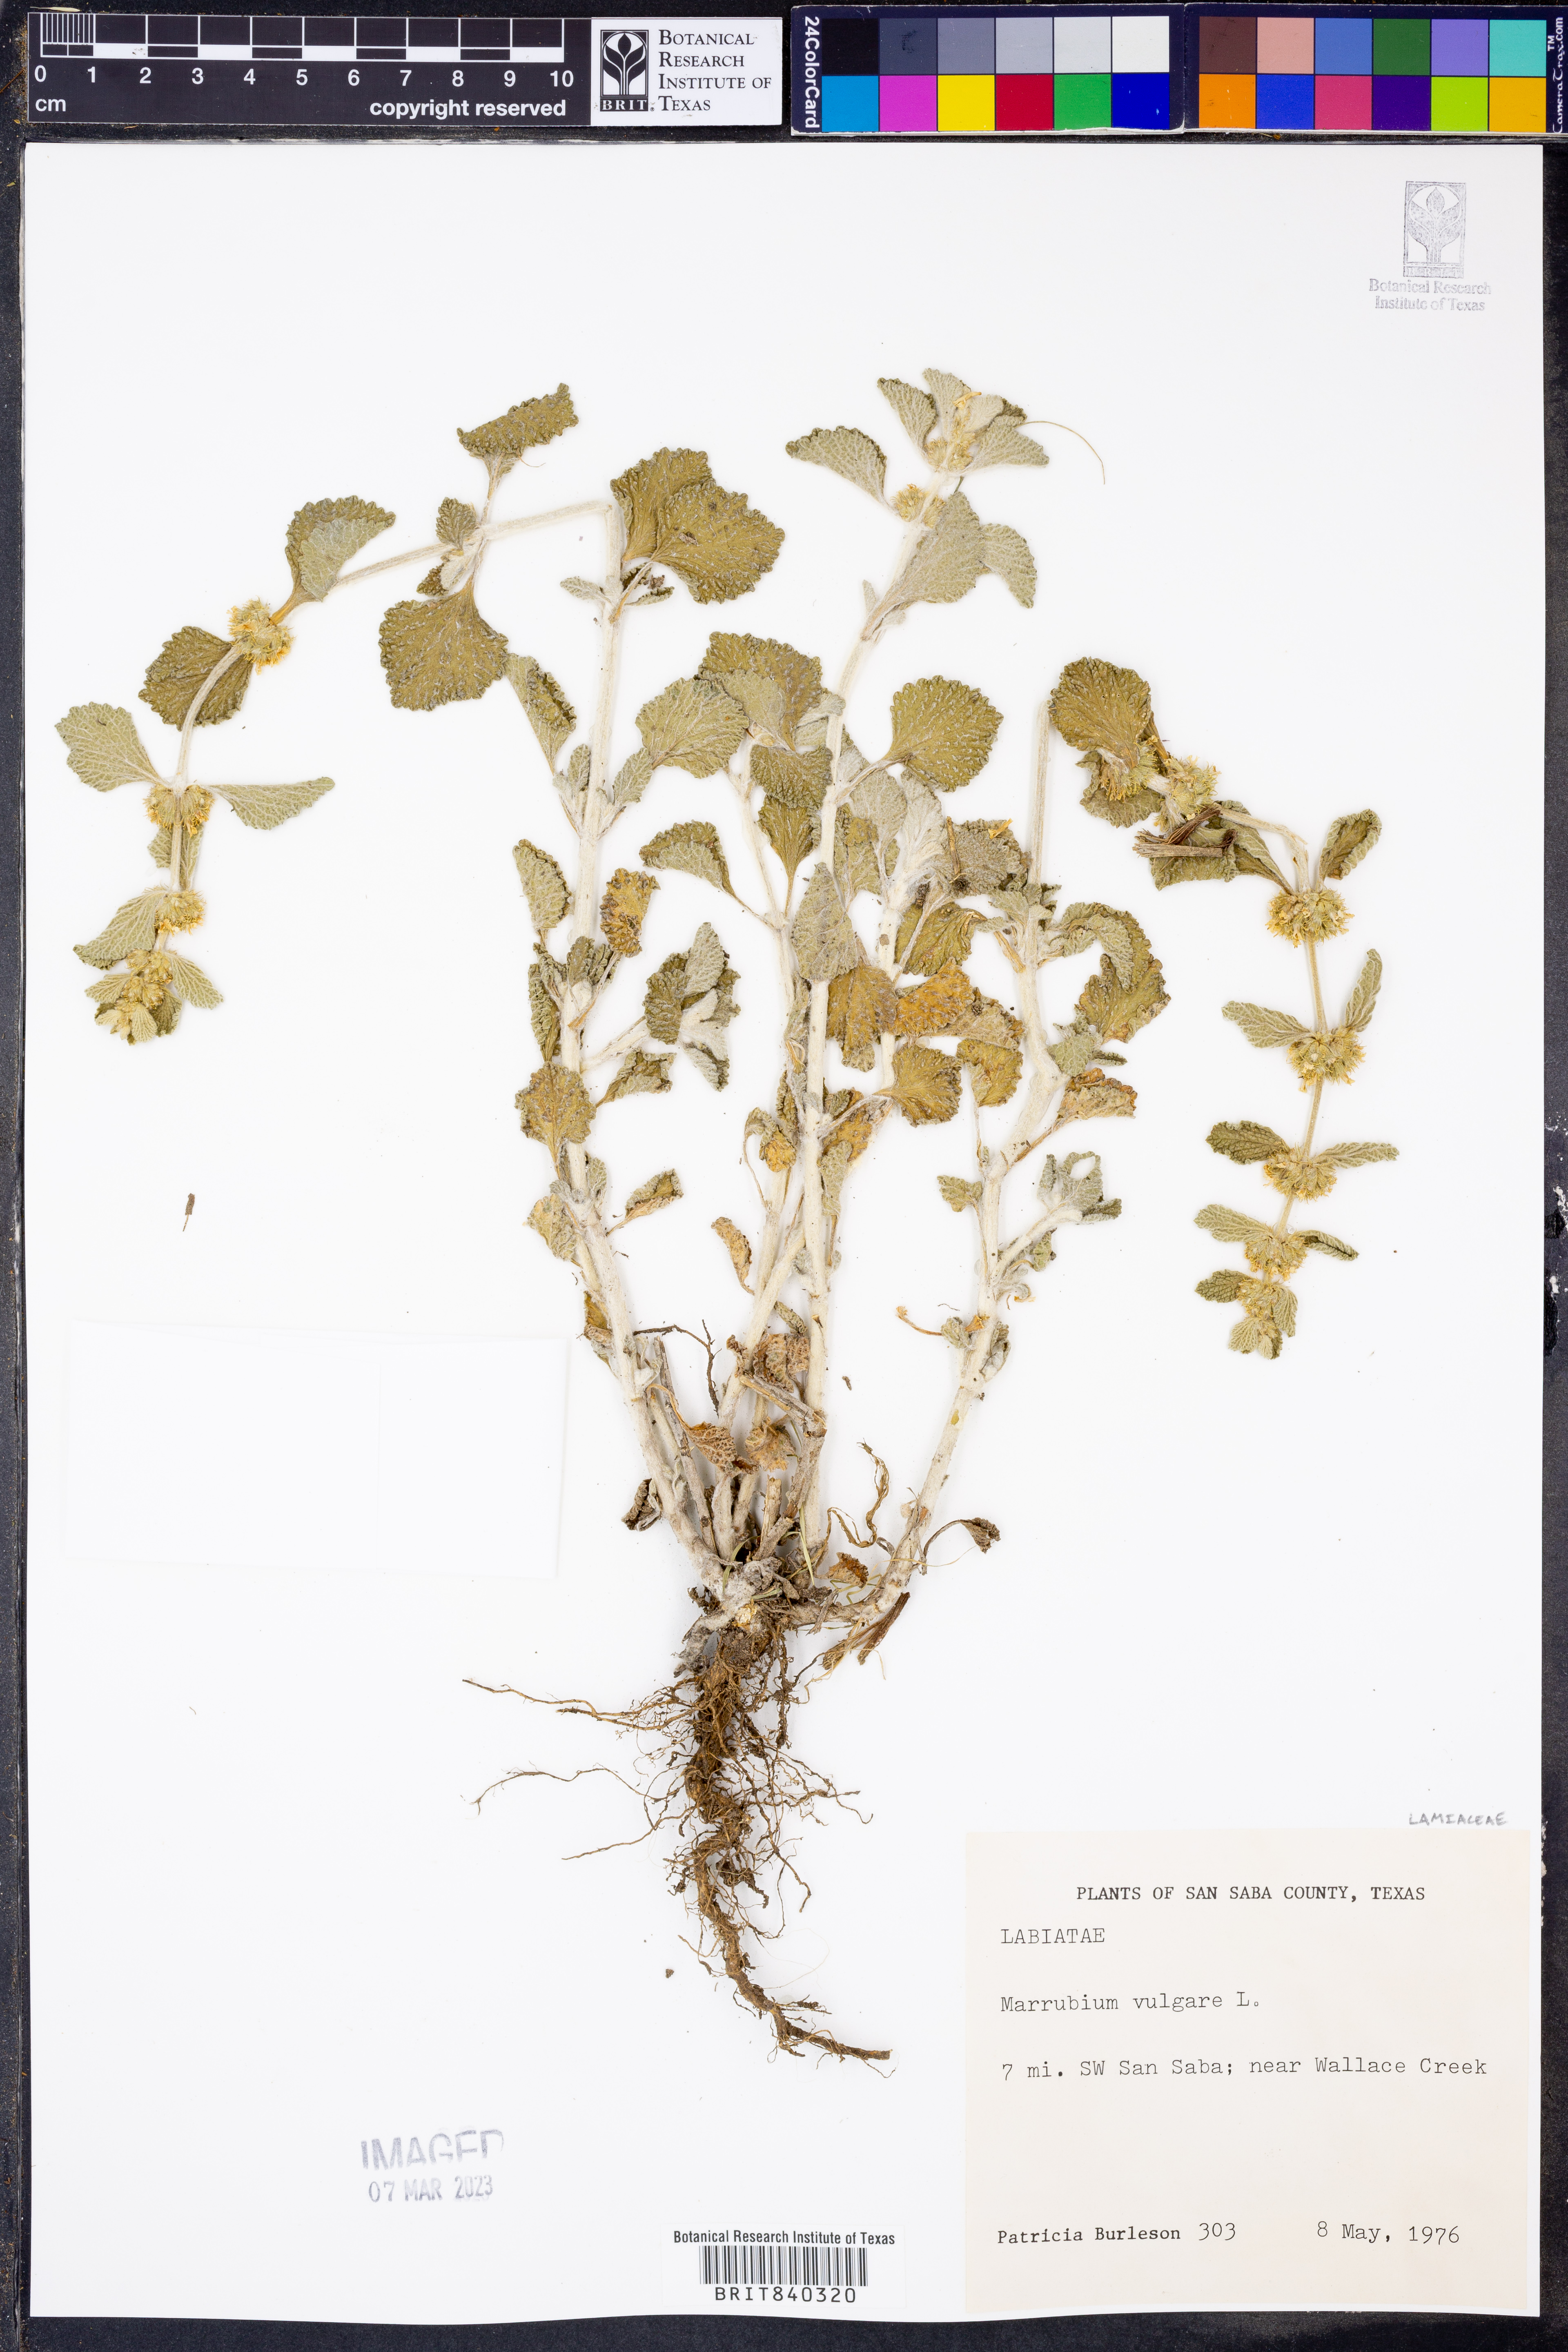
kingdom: Plantae
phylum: Tracheophyta
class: Magnoliopsida
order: Lamiales
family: Lamiaceae
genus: Marrubium
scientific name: Marrubium vulgare
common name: Horehound
